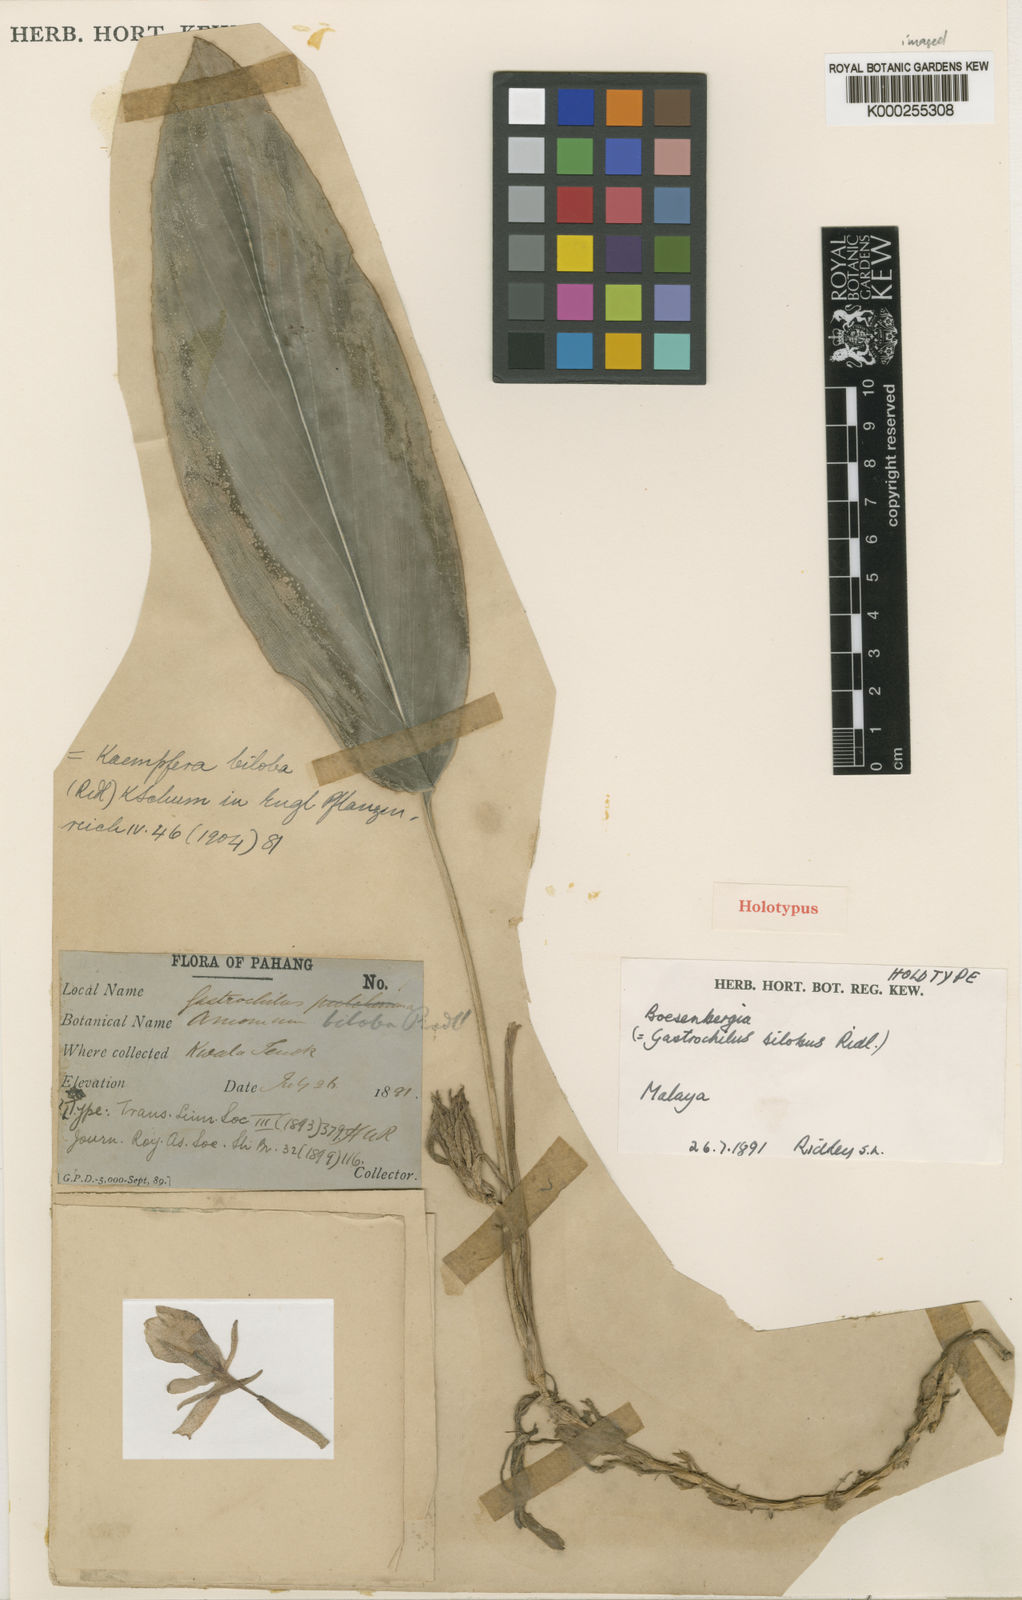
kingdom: Plantae
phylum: Tracheophyta
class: Liliopsida
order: Zingiberales
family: Zingiberaceae
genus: Scaphochlamys
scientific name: Scaphochlamys biloba
